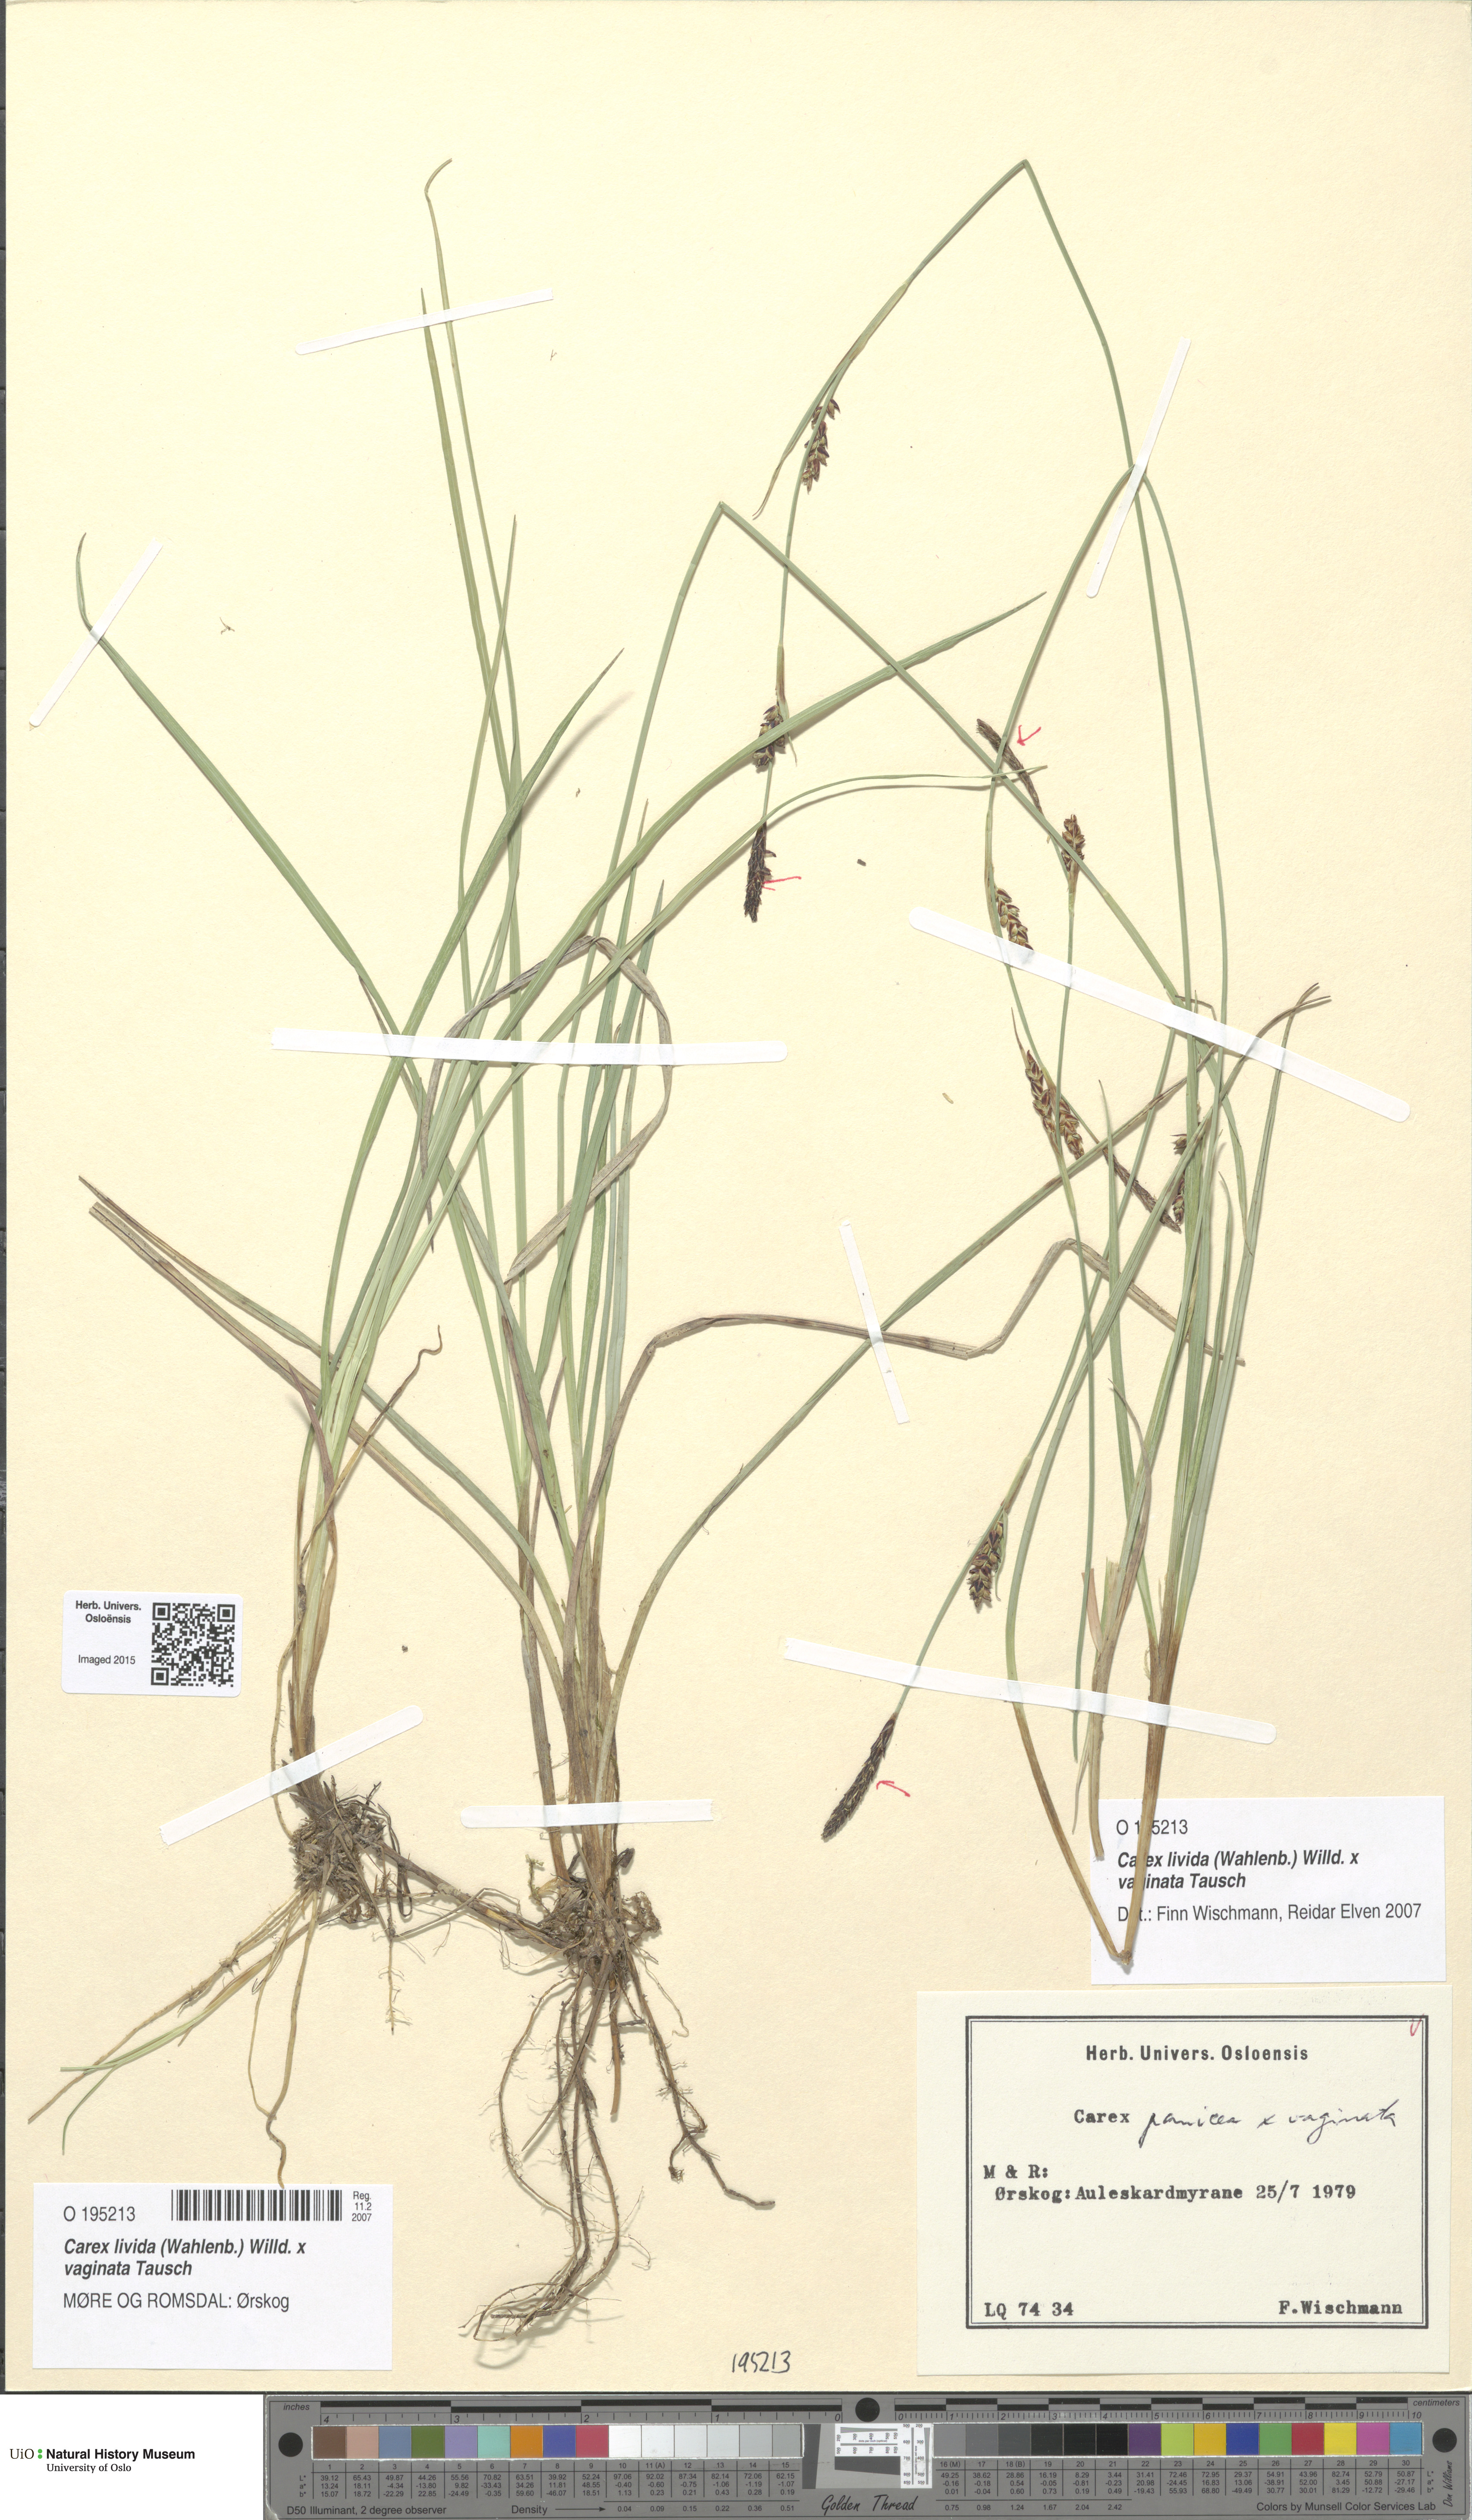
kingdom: Plantae
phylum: Tracheophyta
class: Liliopsida
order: Poales
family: Cyperaceae
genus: Carex
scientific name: Carex
